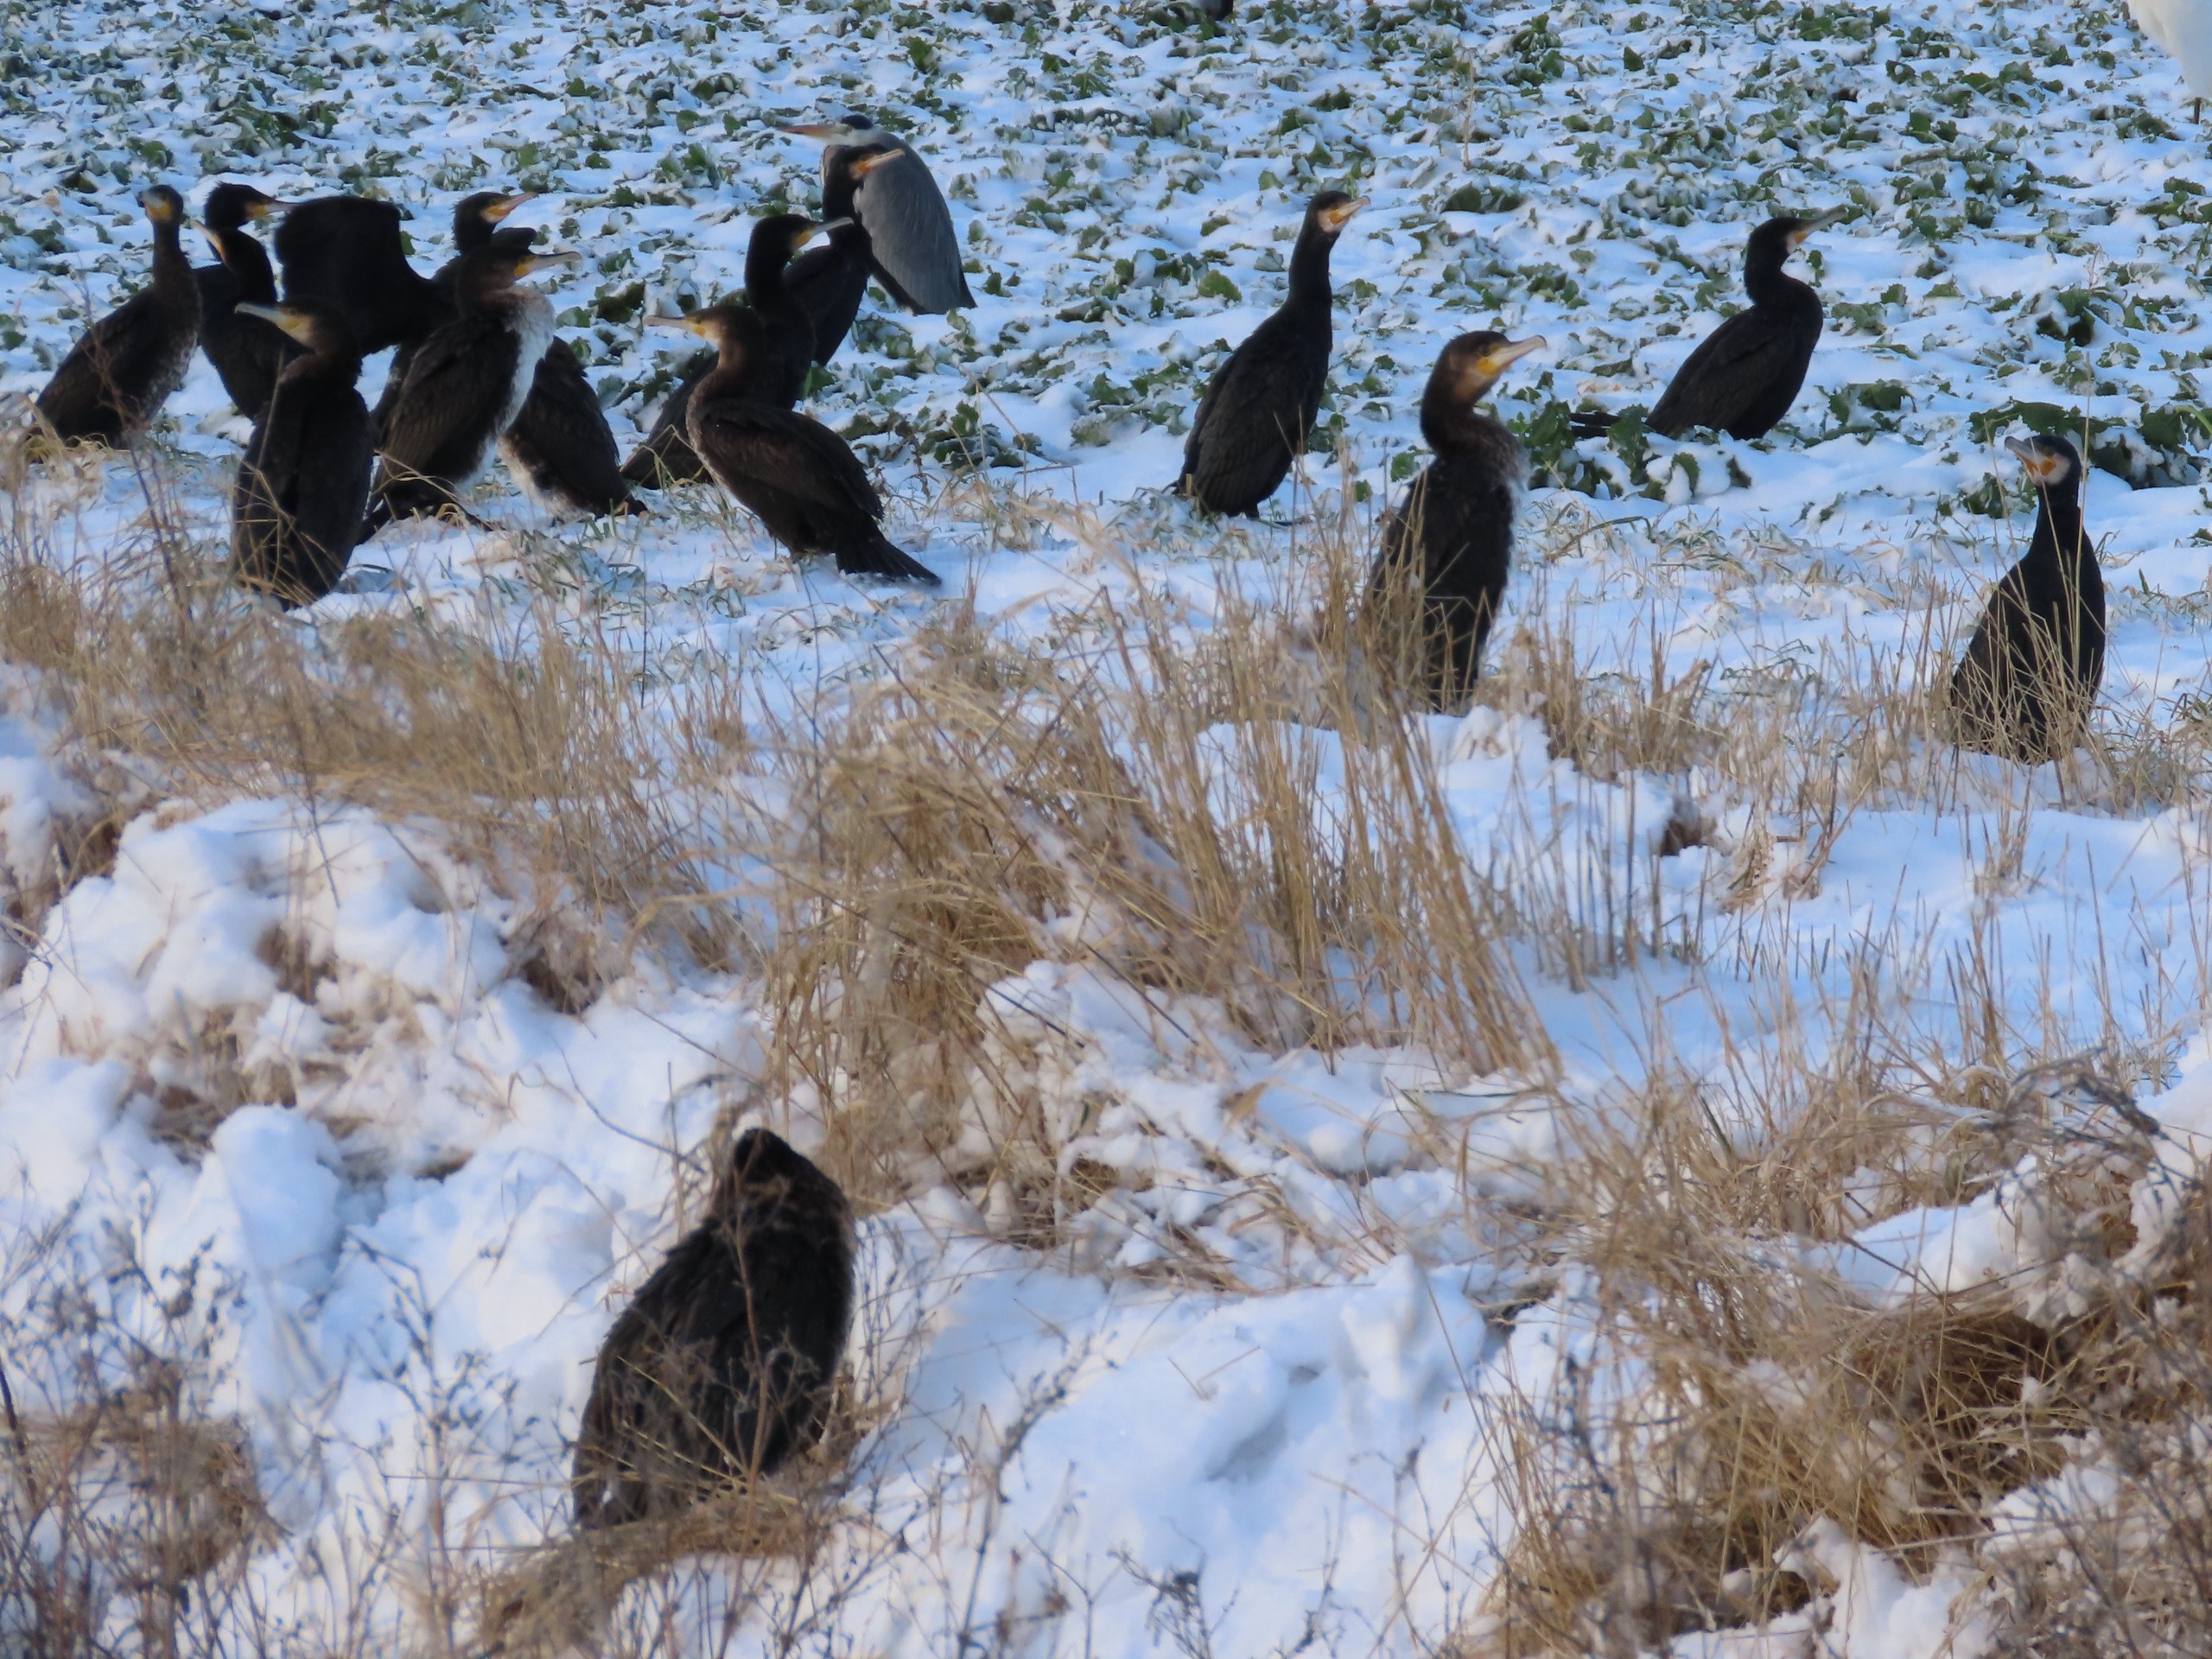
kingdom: Animalia
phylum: Chordata
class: Aves
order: Suliformes
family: Phalacrocoracidae
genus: Phalacrocorax
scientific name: Phalacrocorax carbo
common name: Skarv
